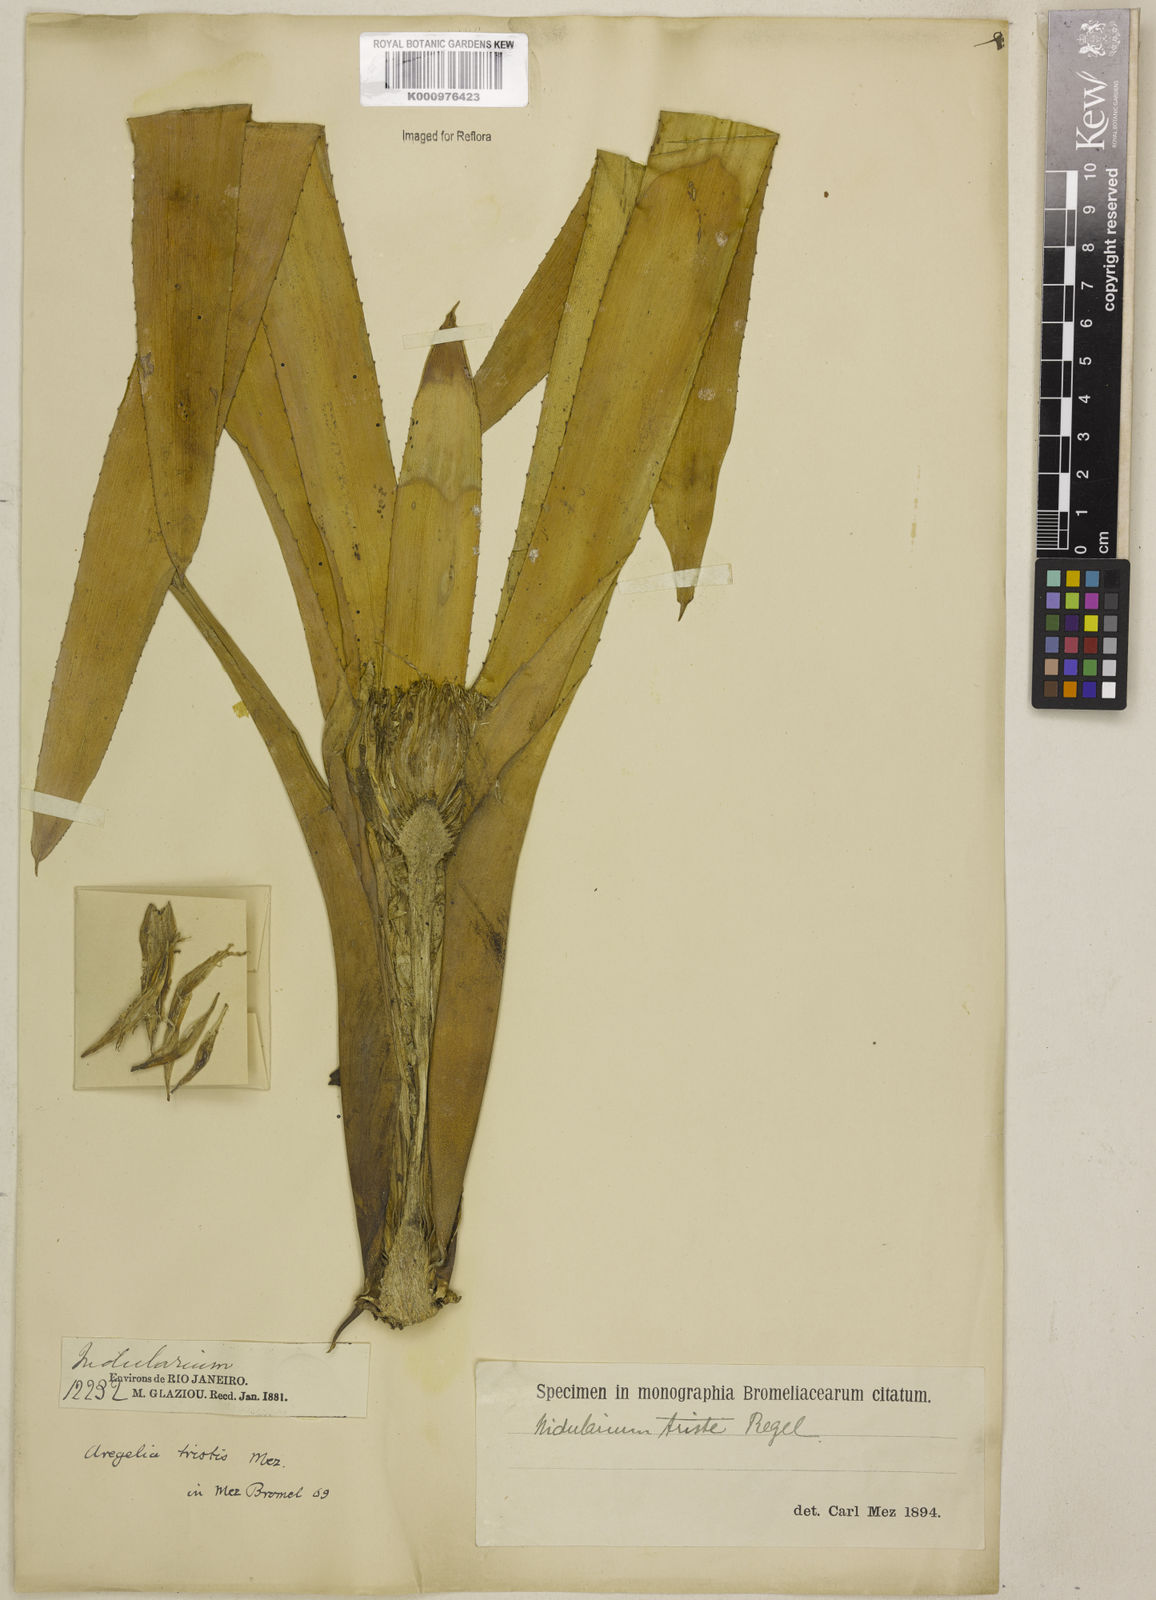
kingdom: Plantae
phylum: Tracheophyta
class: Liliopsida
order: Poales
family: Bromeliaceae
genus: Neoregelia
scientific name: Neoregelia tristis
